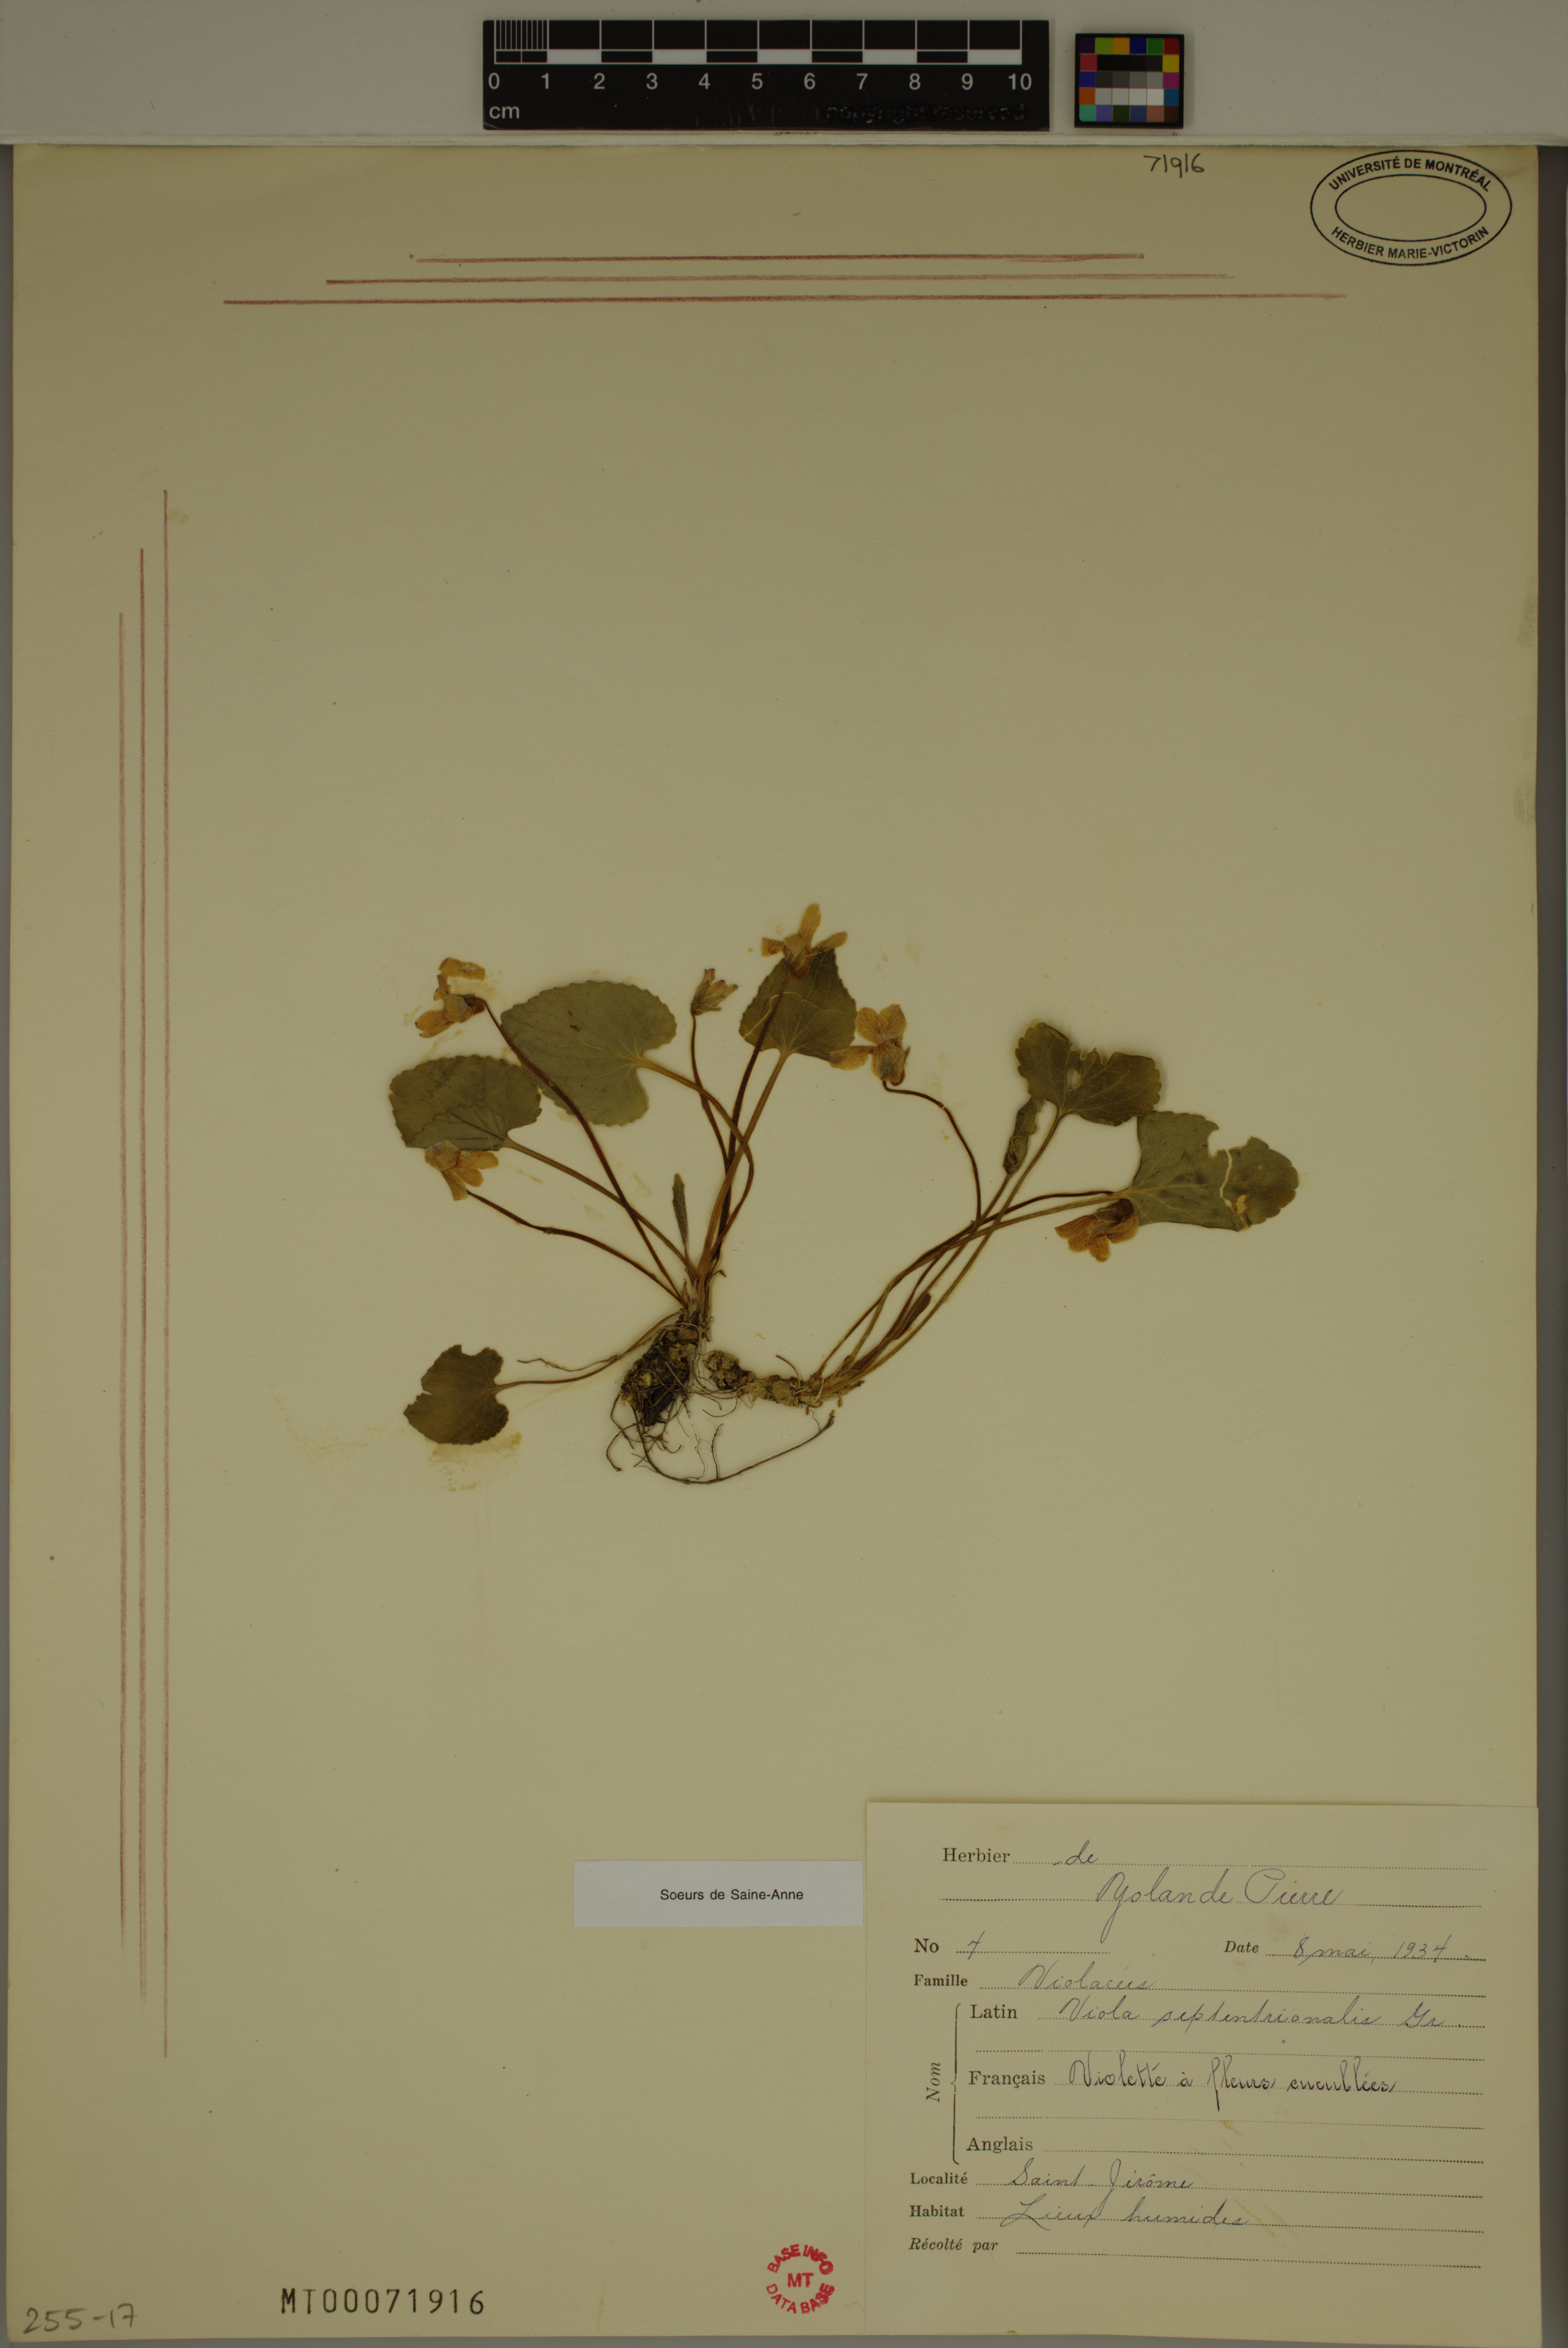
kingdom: Plantae
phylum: Tracheophyta
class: Magnoliopsida
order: Malpighiales
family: Violaceae
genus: Viola
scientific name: Viola sororia
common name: Dooryard violet
